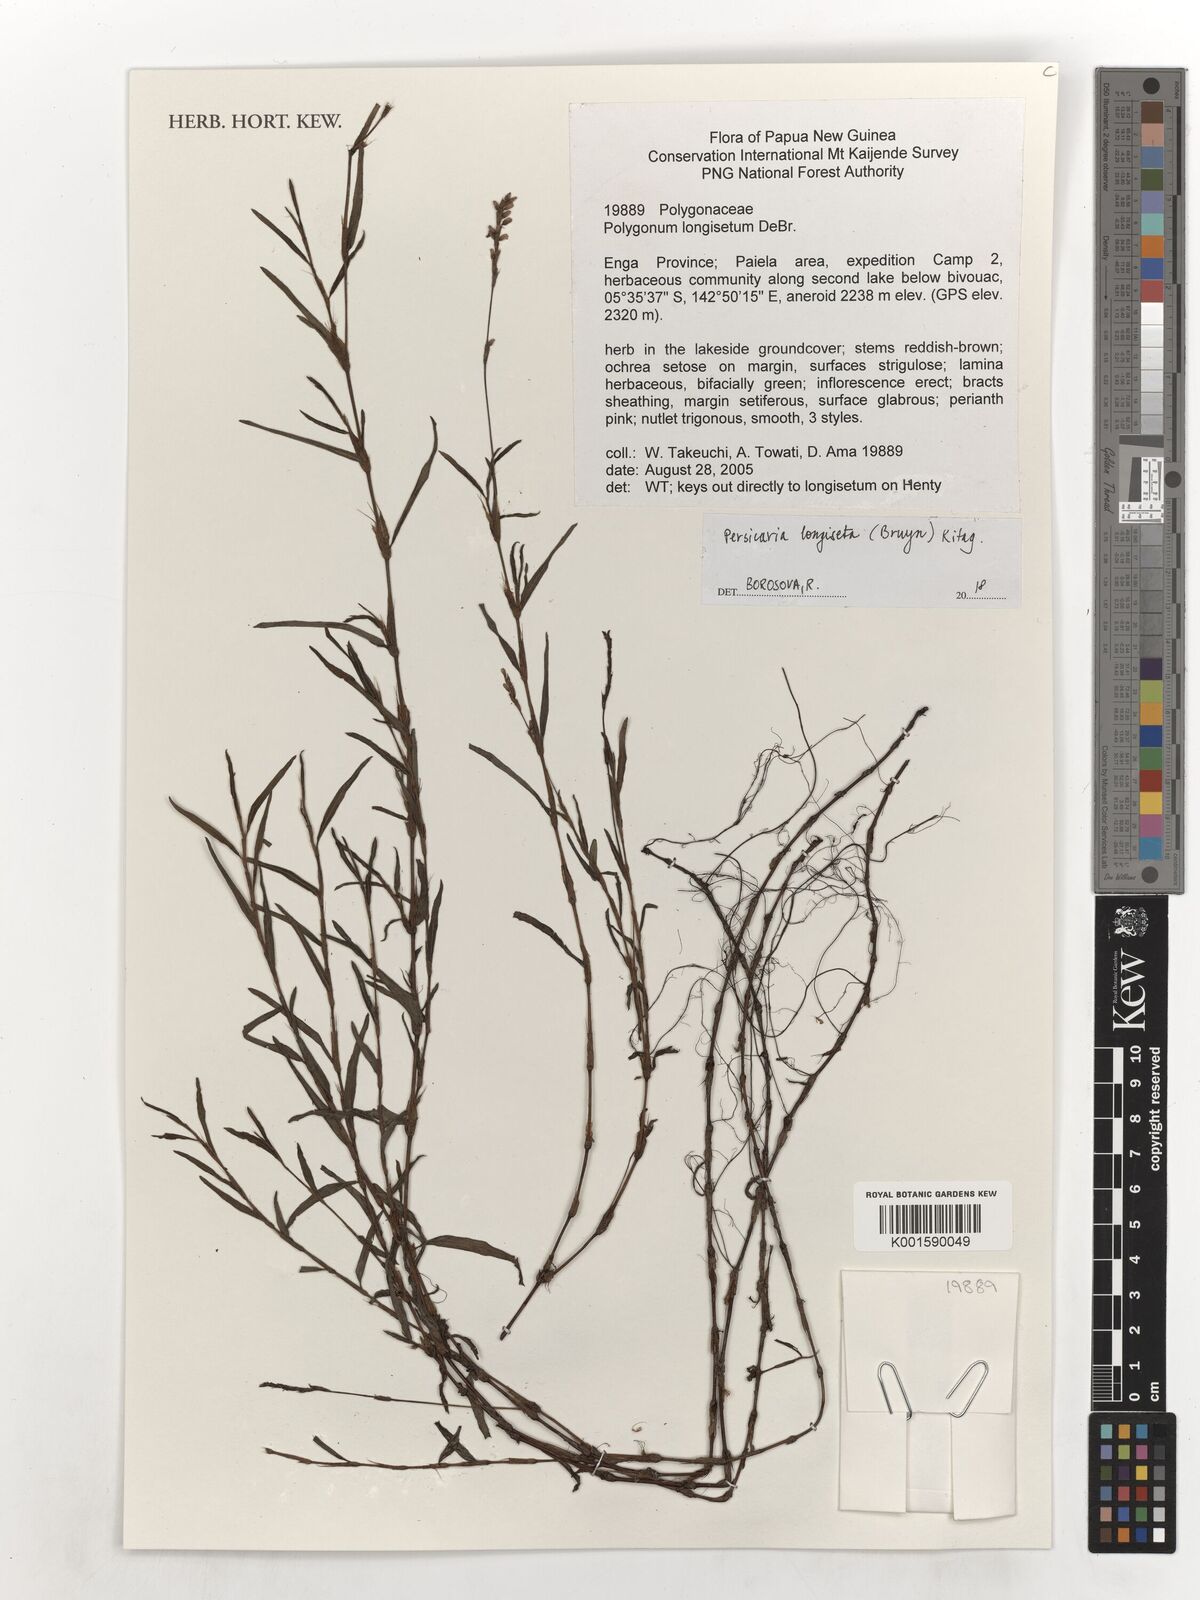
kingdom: Plantae
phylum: Tracheophyta
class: Magnoliopsida
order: Caryophyllales
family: Polygonaceae
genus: Persicaria
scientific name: Persicaria longiseta
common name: Bristly lady's-thumb
